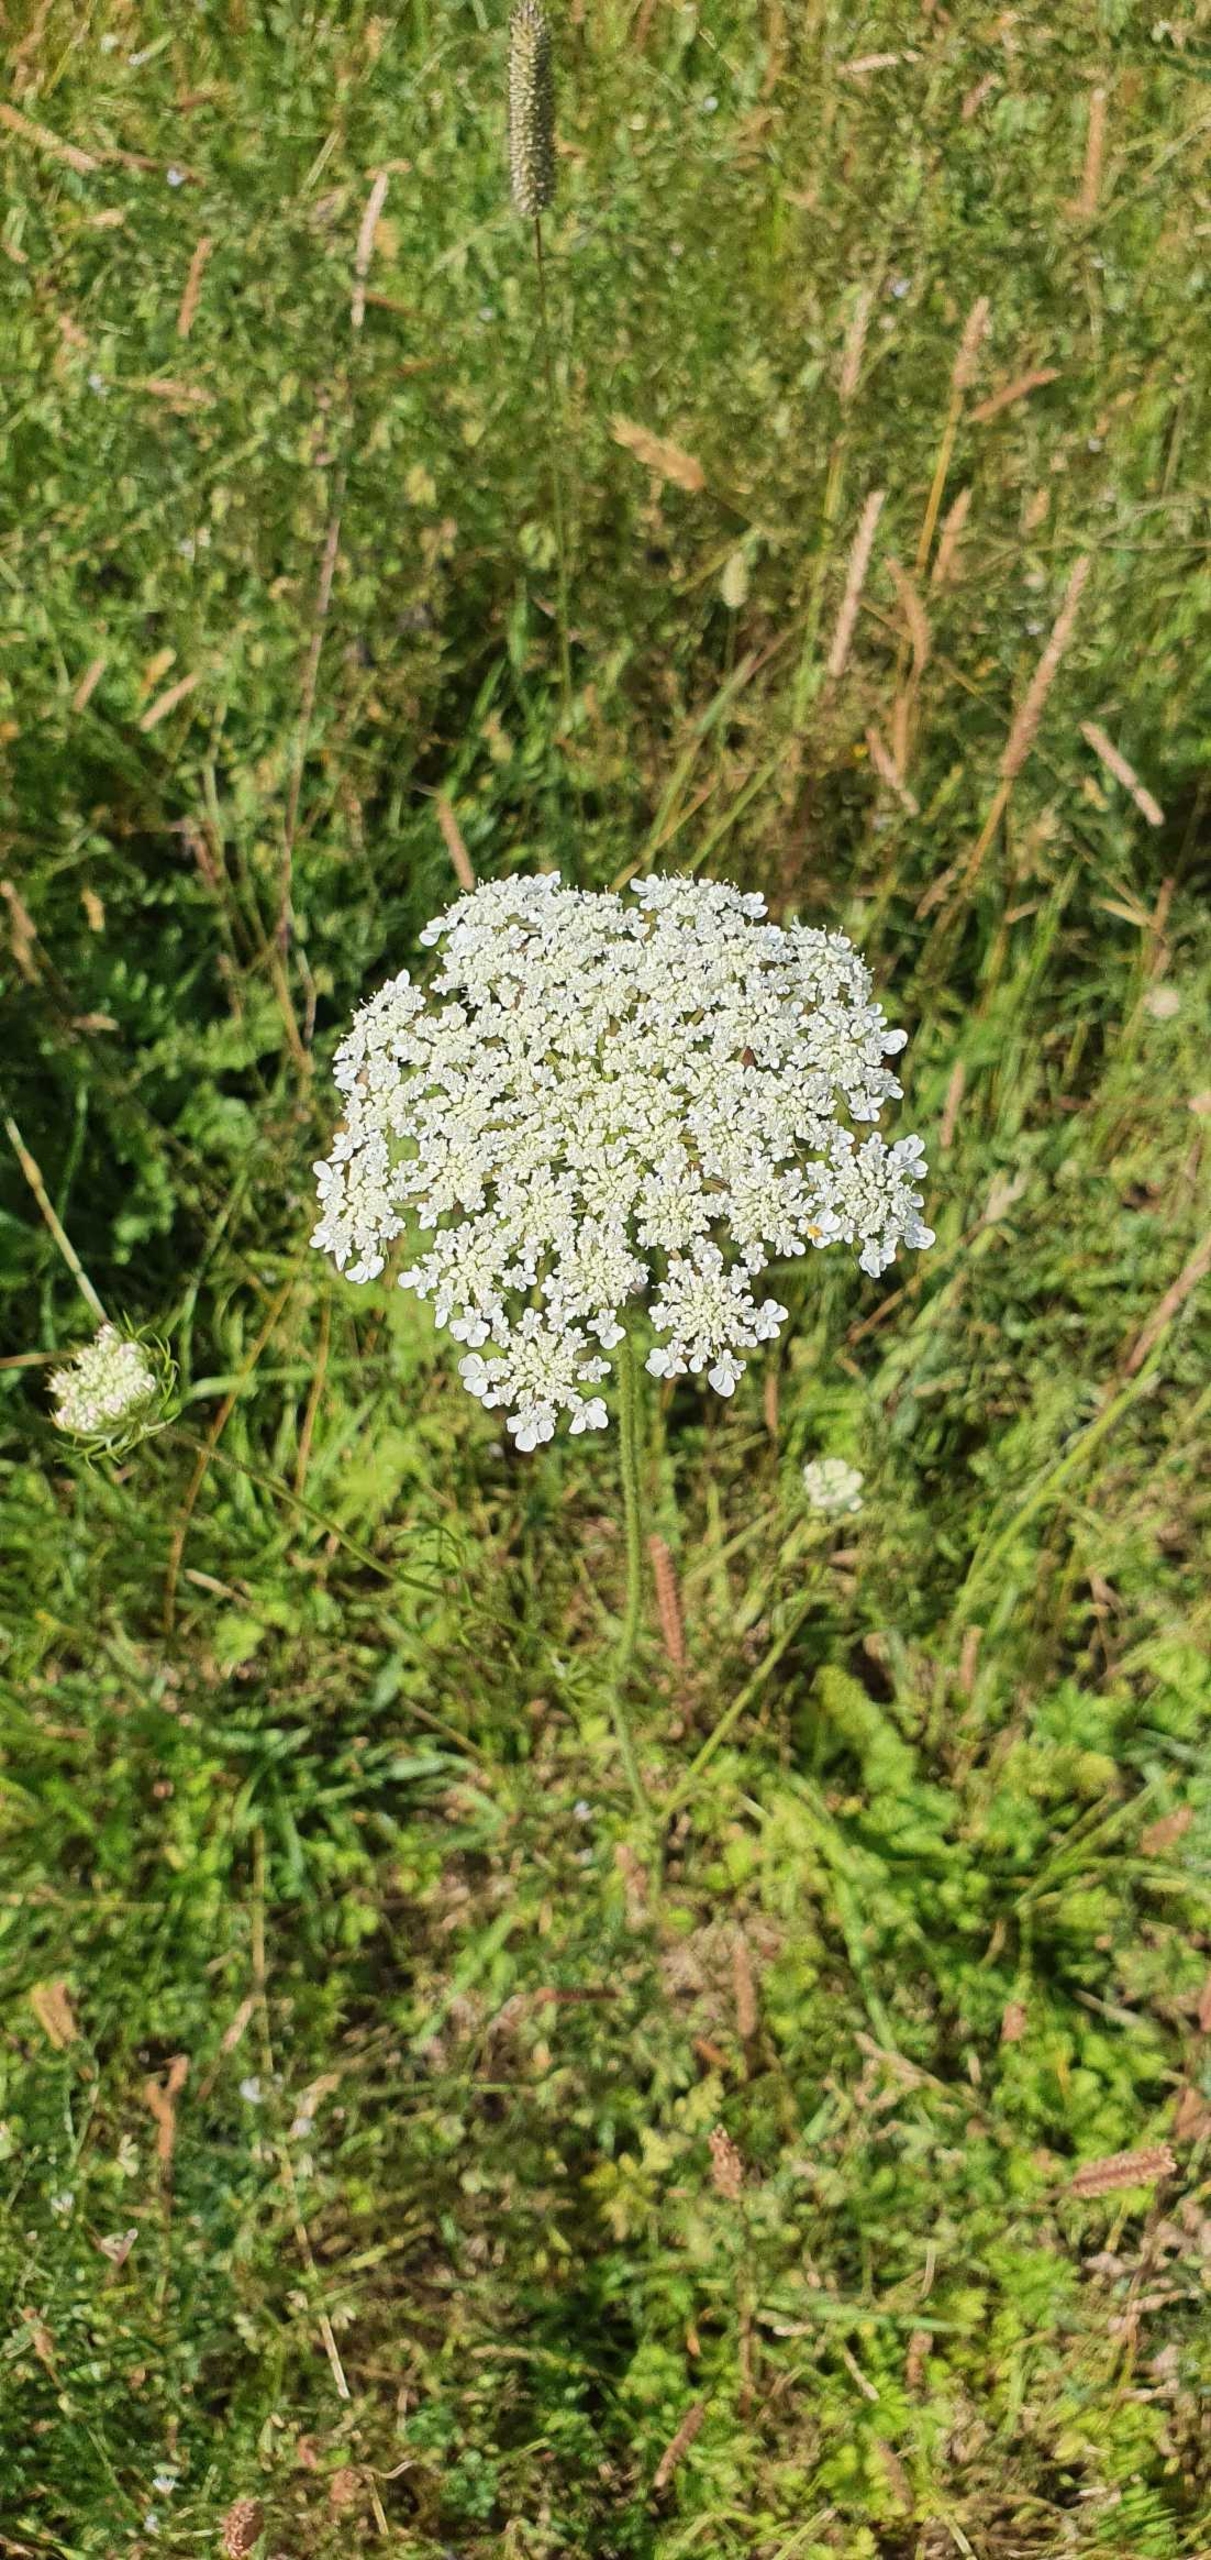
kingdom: Plantae
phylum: Tracheophyta
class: Magnoliopsida
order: Apiales
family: Apiaceae
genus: Daucus
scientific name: Daucus carota
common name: Gulerod
